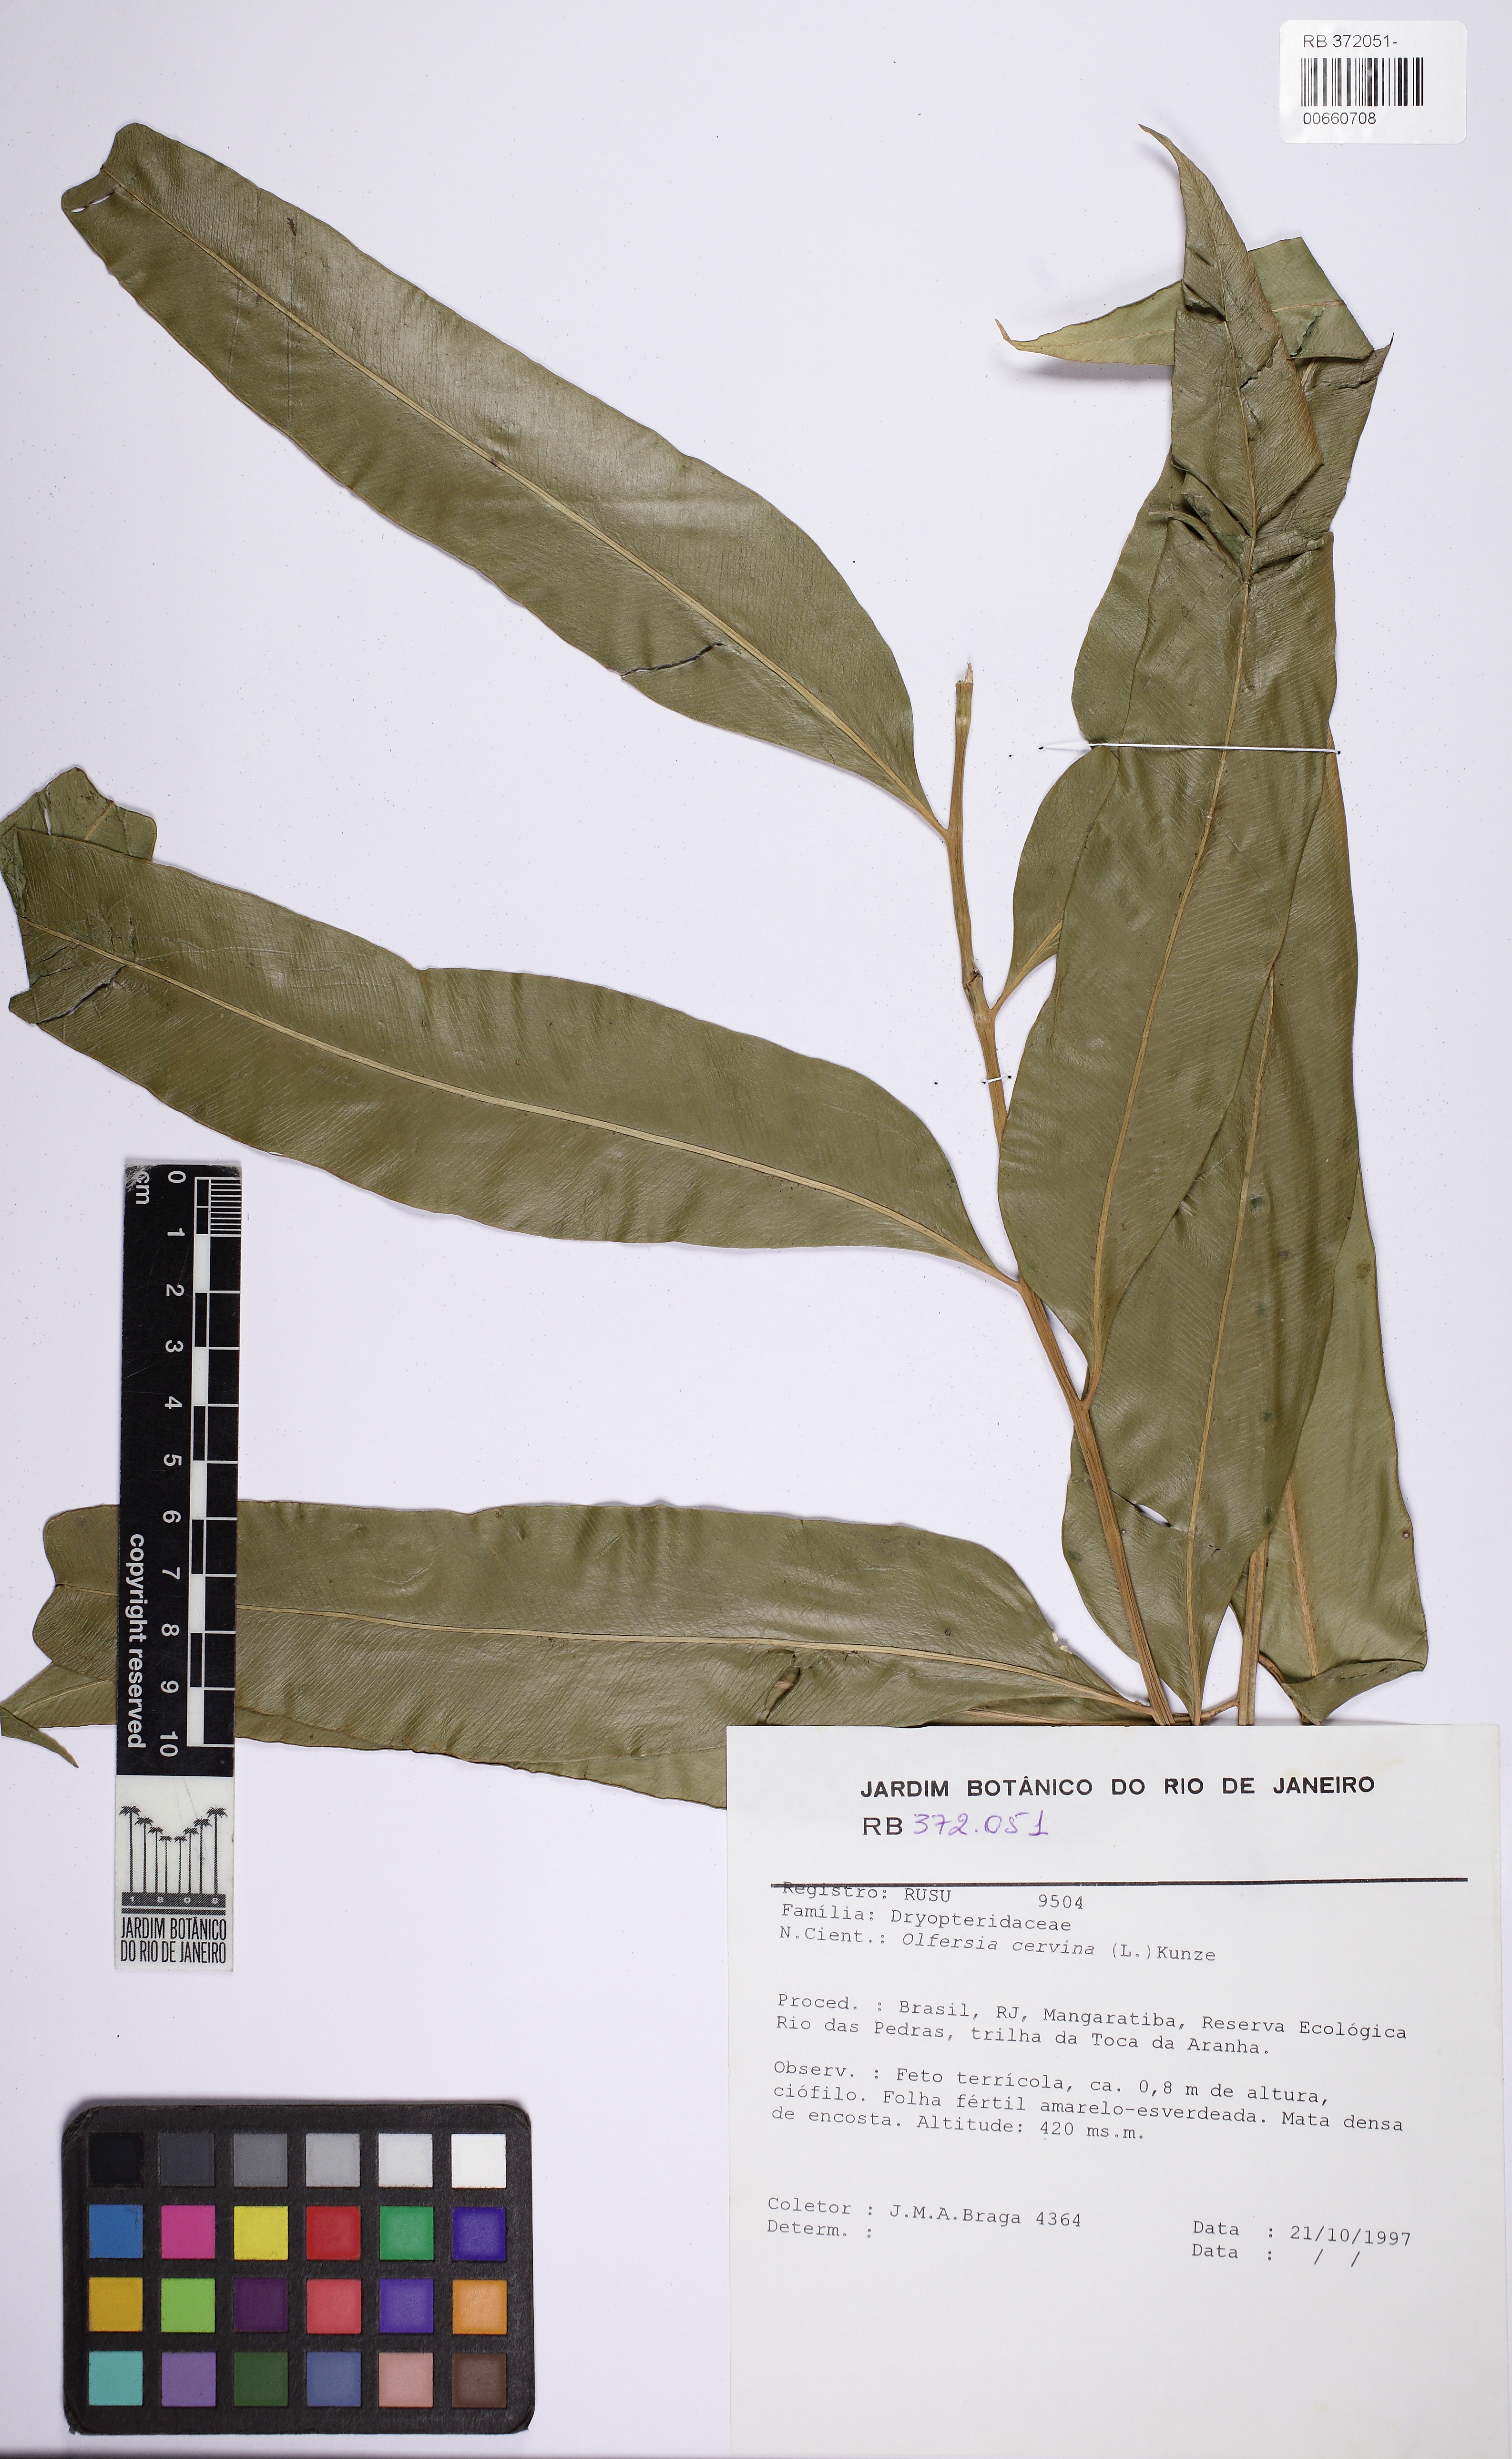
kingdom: Plantae
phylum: Tracheophyta
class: Polypodiopsida
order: Polypodiales
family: Dryopteridaceae
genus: Olfersia
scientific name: Olfersia cervina
